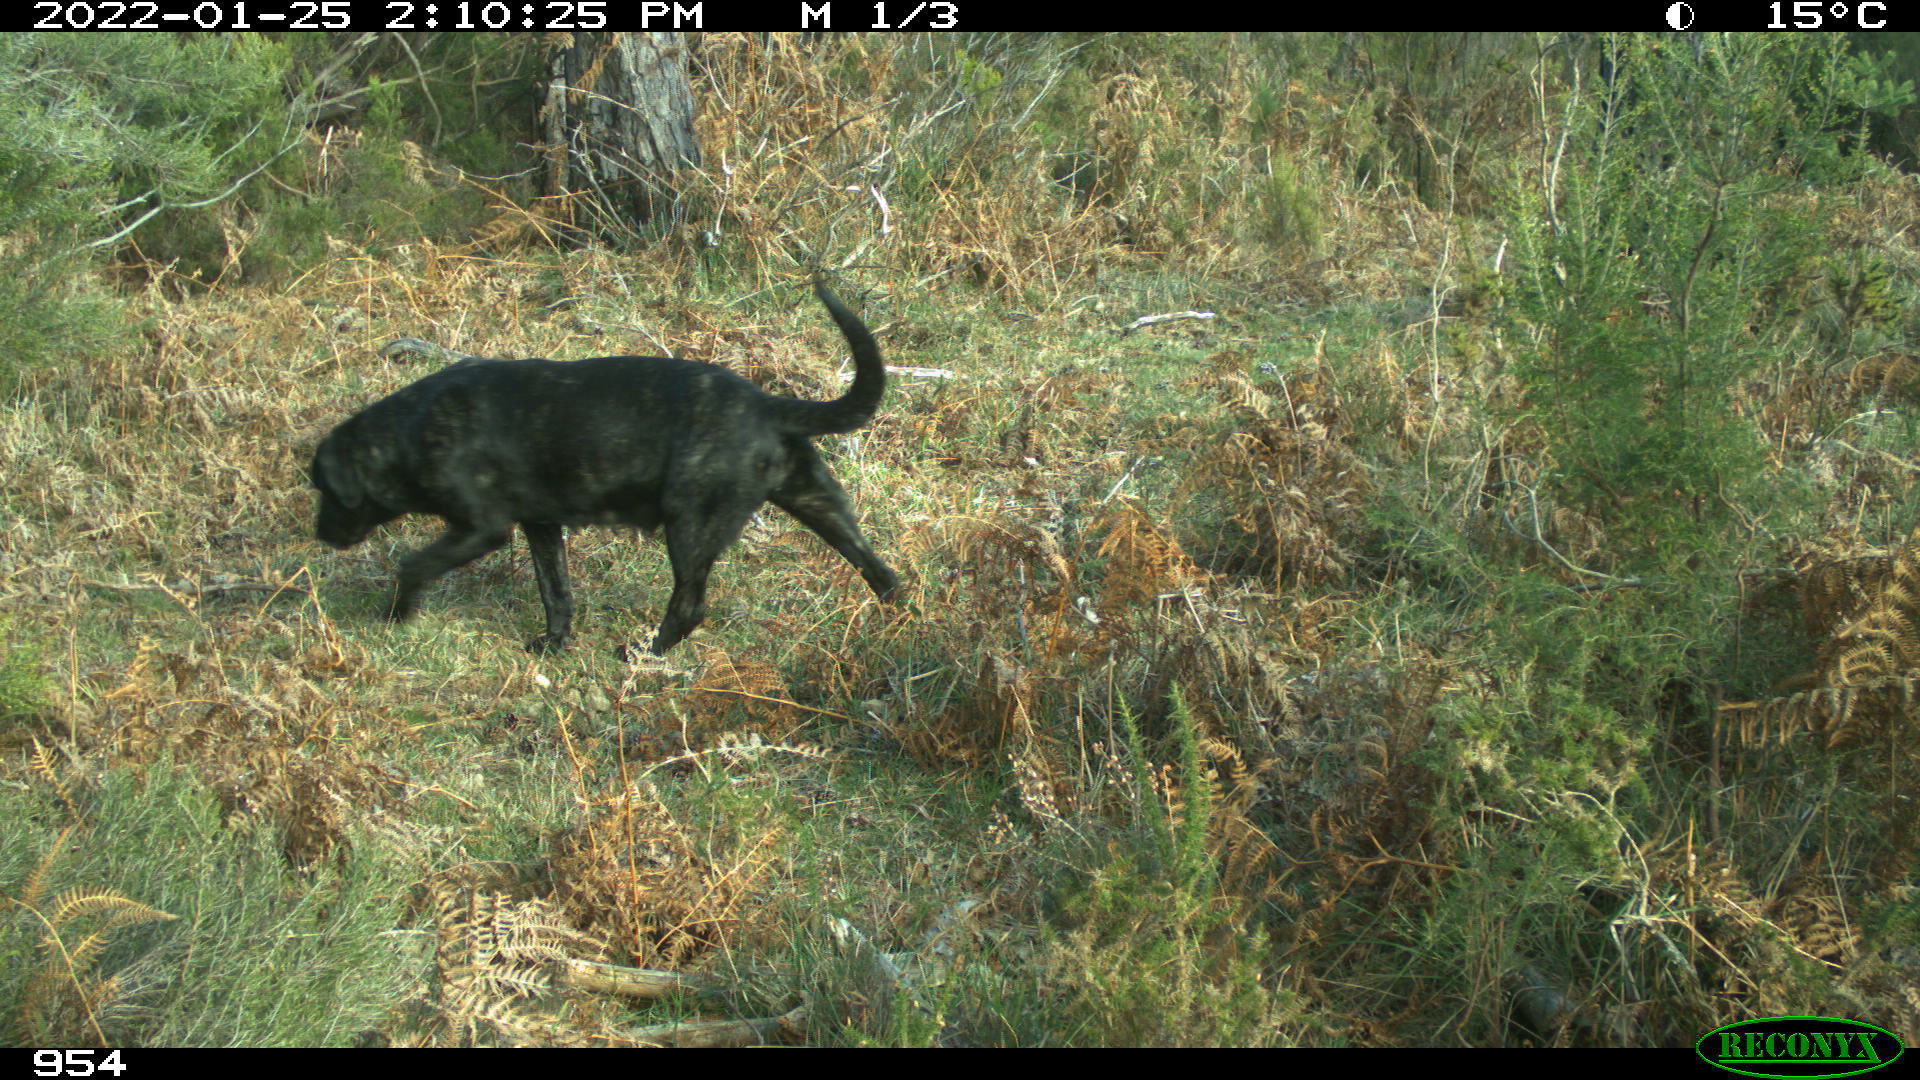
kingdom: Animalia
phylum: Chordata
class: Mammalia
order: Carnivora
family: Canidae
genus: Canis
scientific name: Canis lupus
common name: Gray wolf
